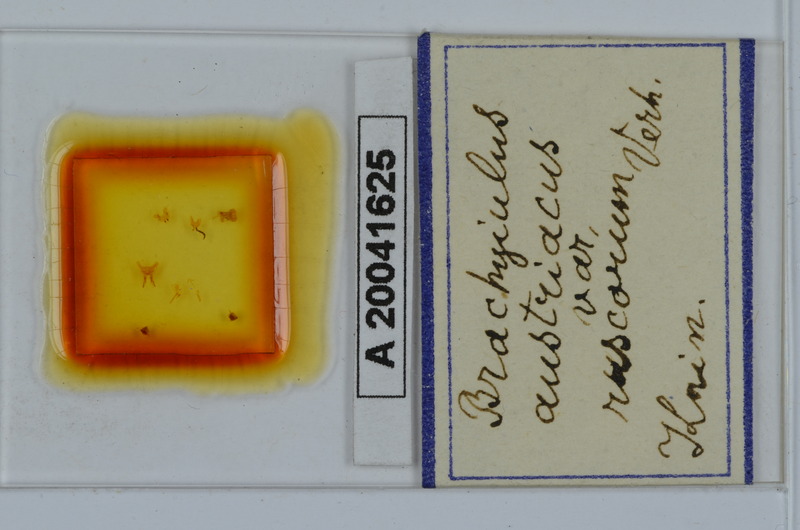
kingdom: Animalia
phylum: Arthropoda
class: Diplopoda
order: Julida
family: Julidae
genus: Brachyiulus
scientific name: Brachyiulus austriacus
